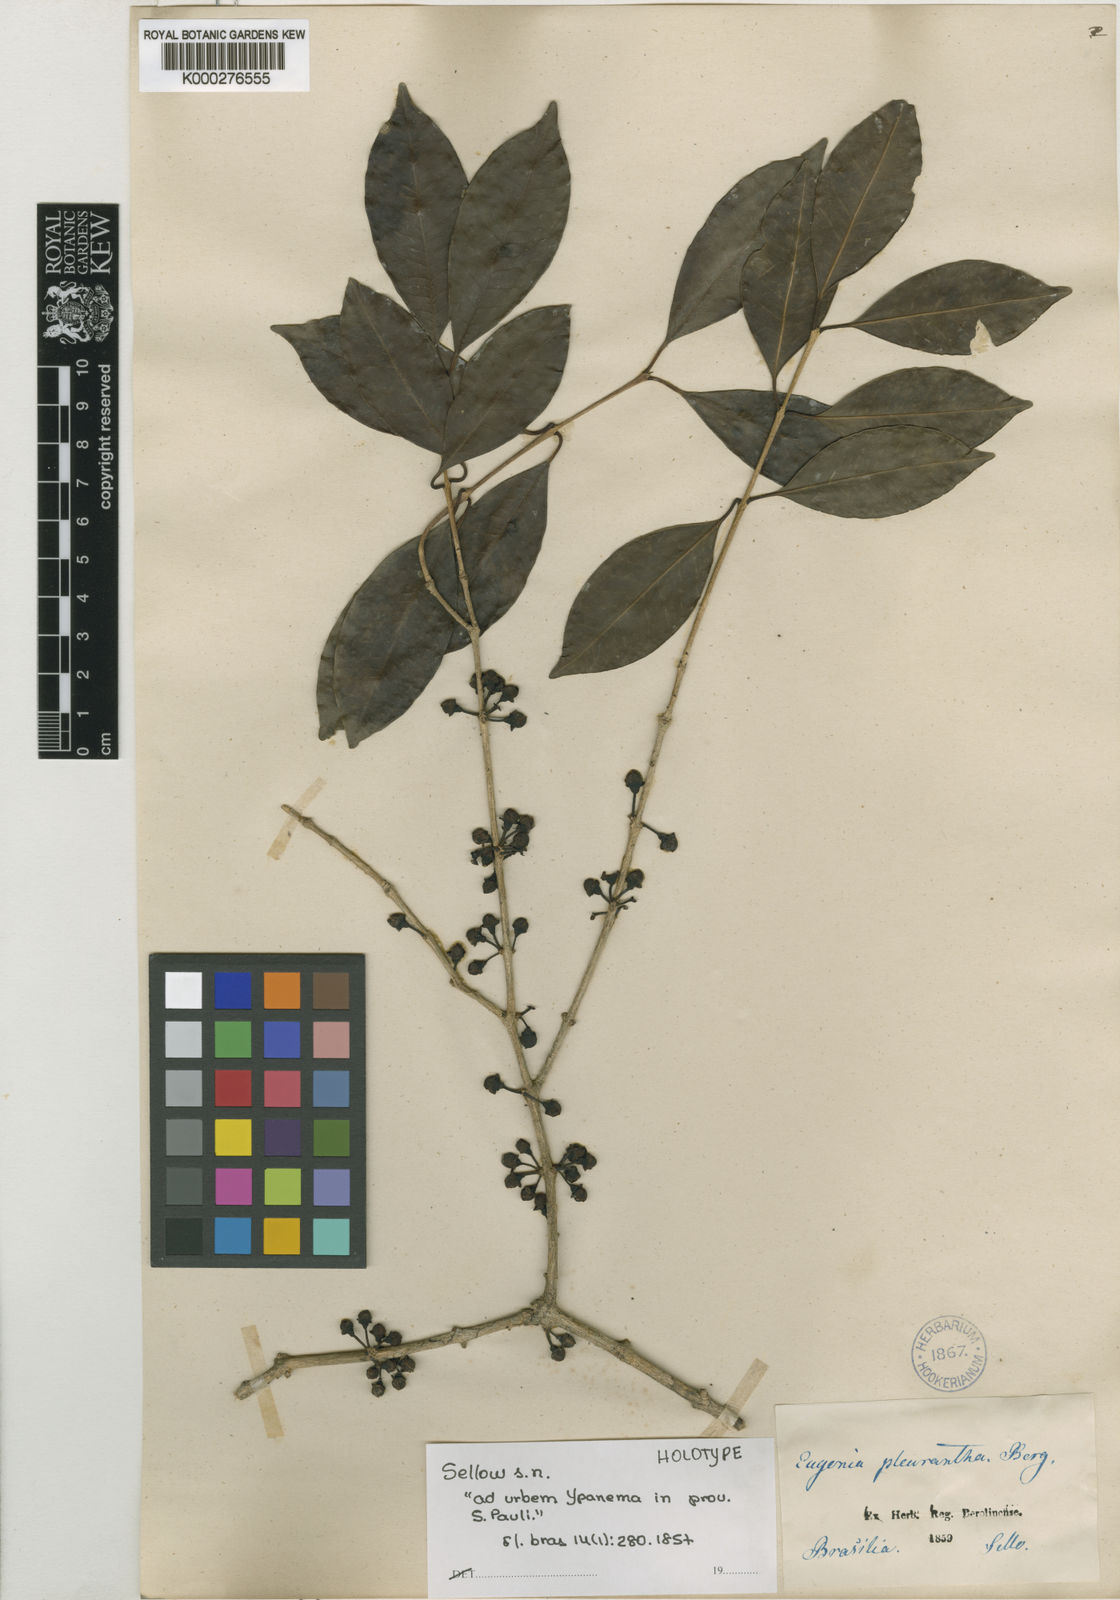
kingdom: Plantae
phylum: Tracheophyta
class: Magnoliopsida
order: Myrtales
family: Myrtaceae
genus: Eugenia
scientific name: Eugenia pleurantha
